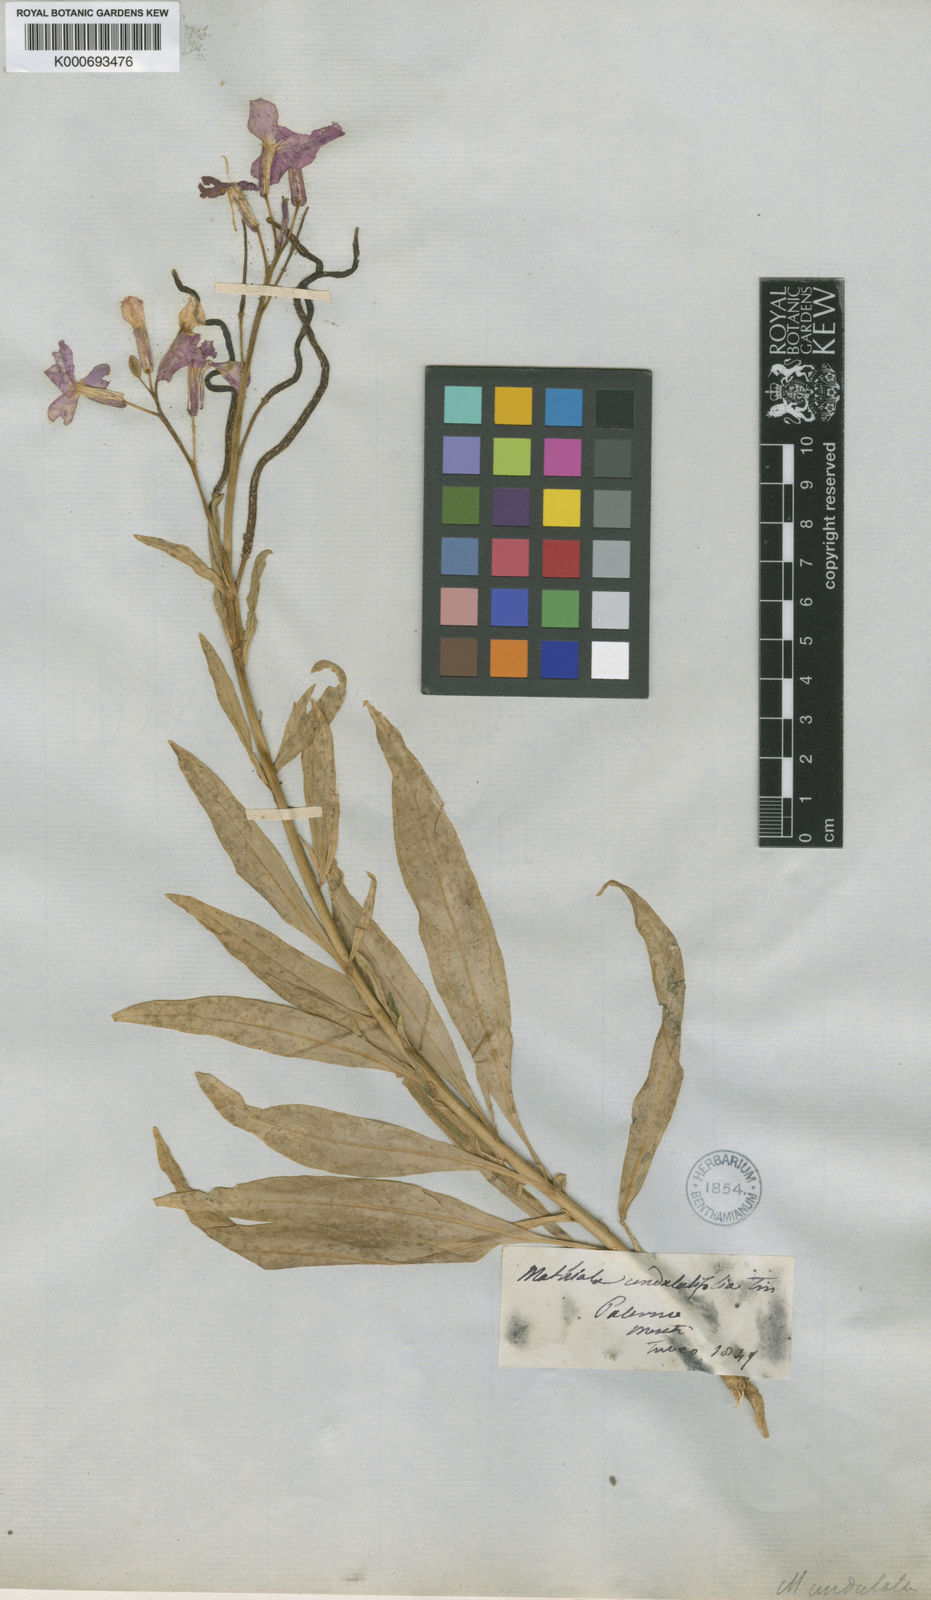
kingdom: Plantae
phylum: Tracheophyta
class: Magnoliopsida
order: Brassicales
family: Brassicaceae
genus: Matthiola
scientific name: Matthiola
